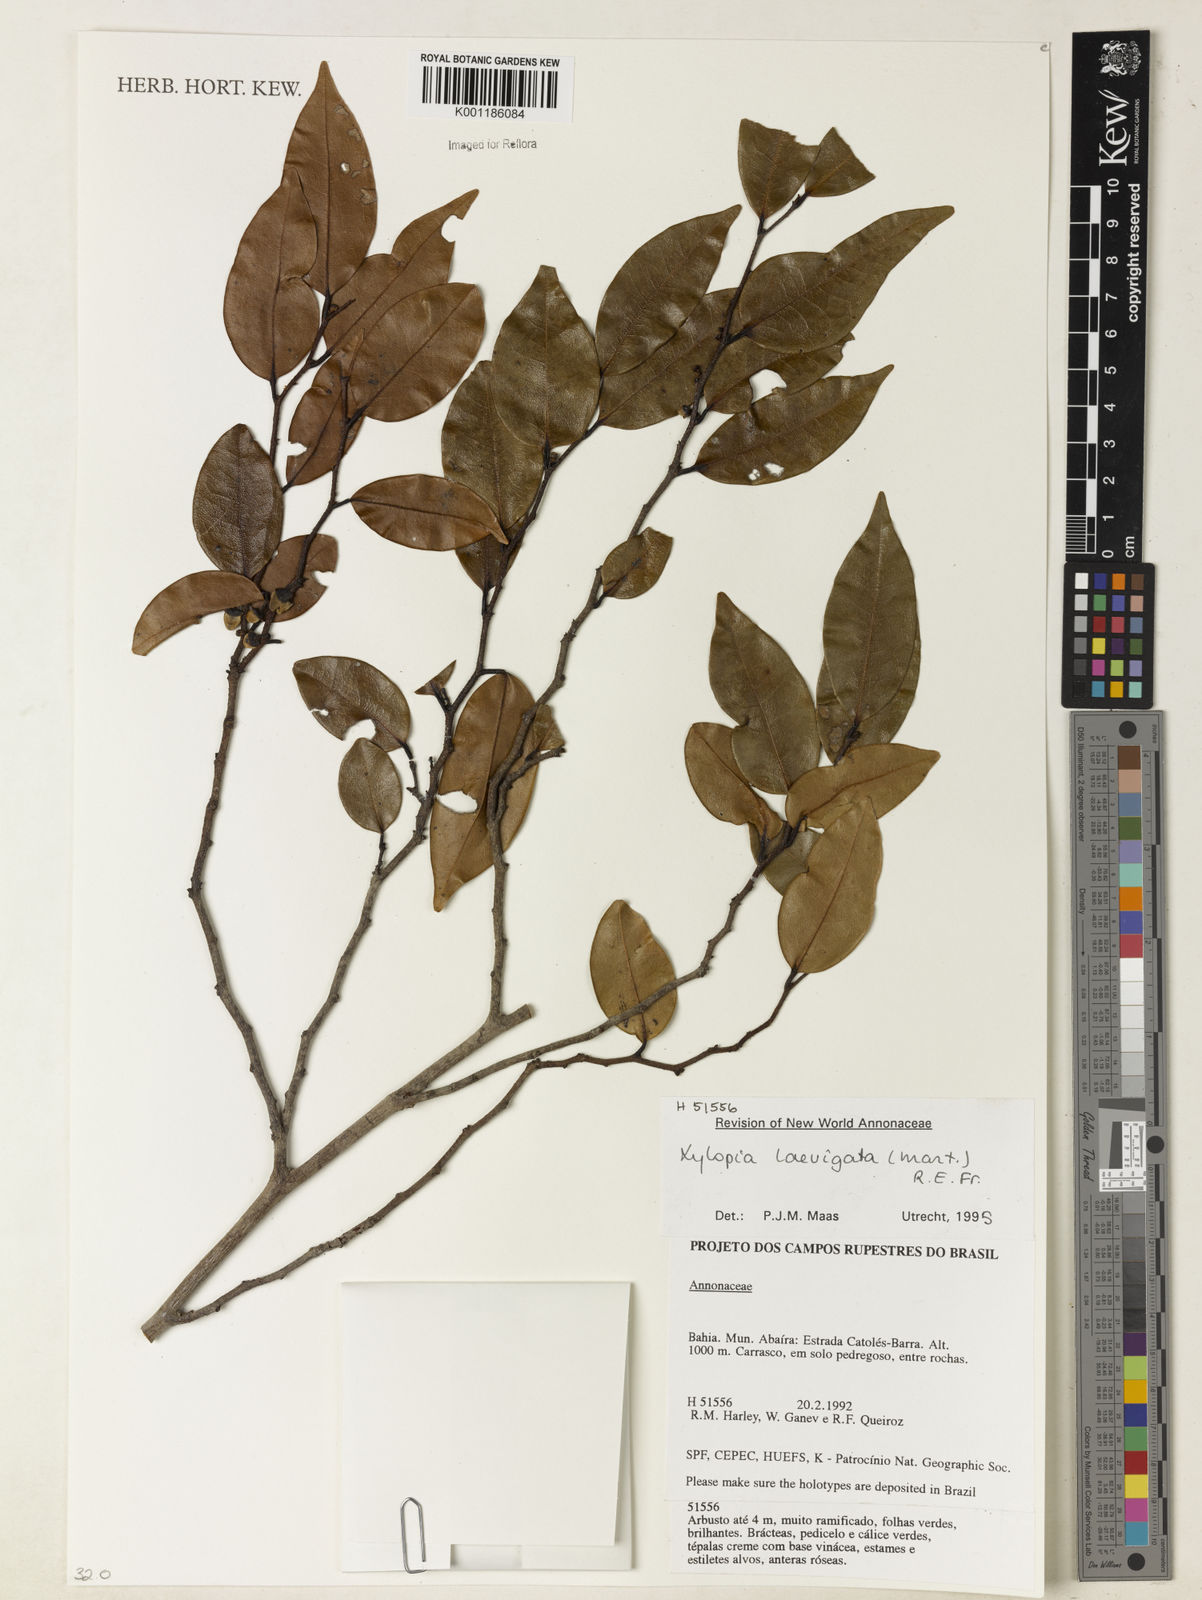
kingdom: Plantae
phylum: Tracheophyta
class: Magnoliopsida
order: Magnoliales
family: Annonaceae
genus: Xylopia
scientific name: Xylopia laevigata
